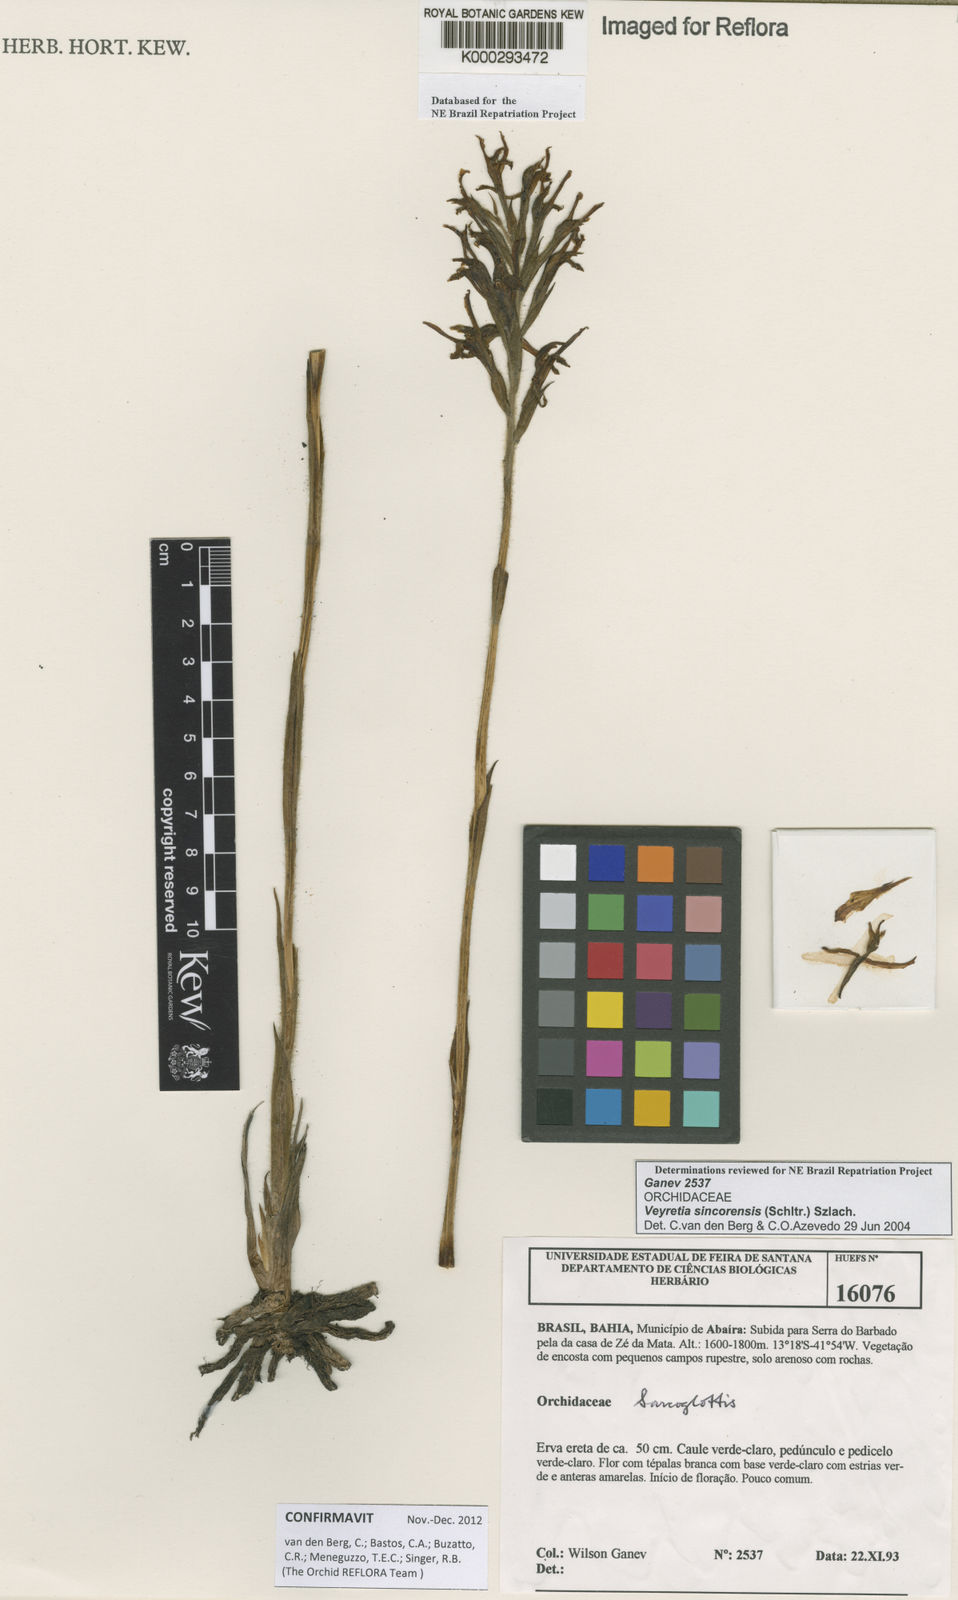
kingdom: Plantae
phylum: Tracheophyta
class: Liliopsida
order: Asparagales
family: Orchidaceae
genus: Veyretia
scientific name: Veyretia sincorensis
